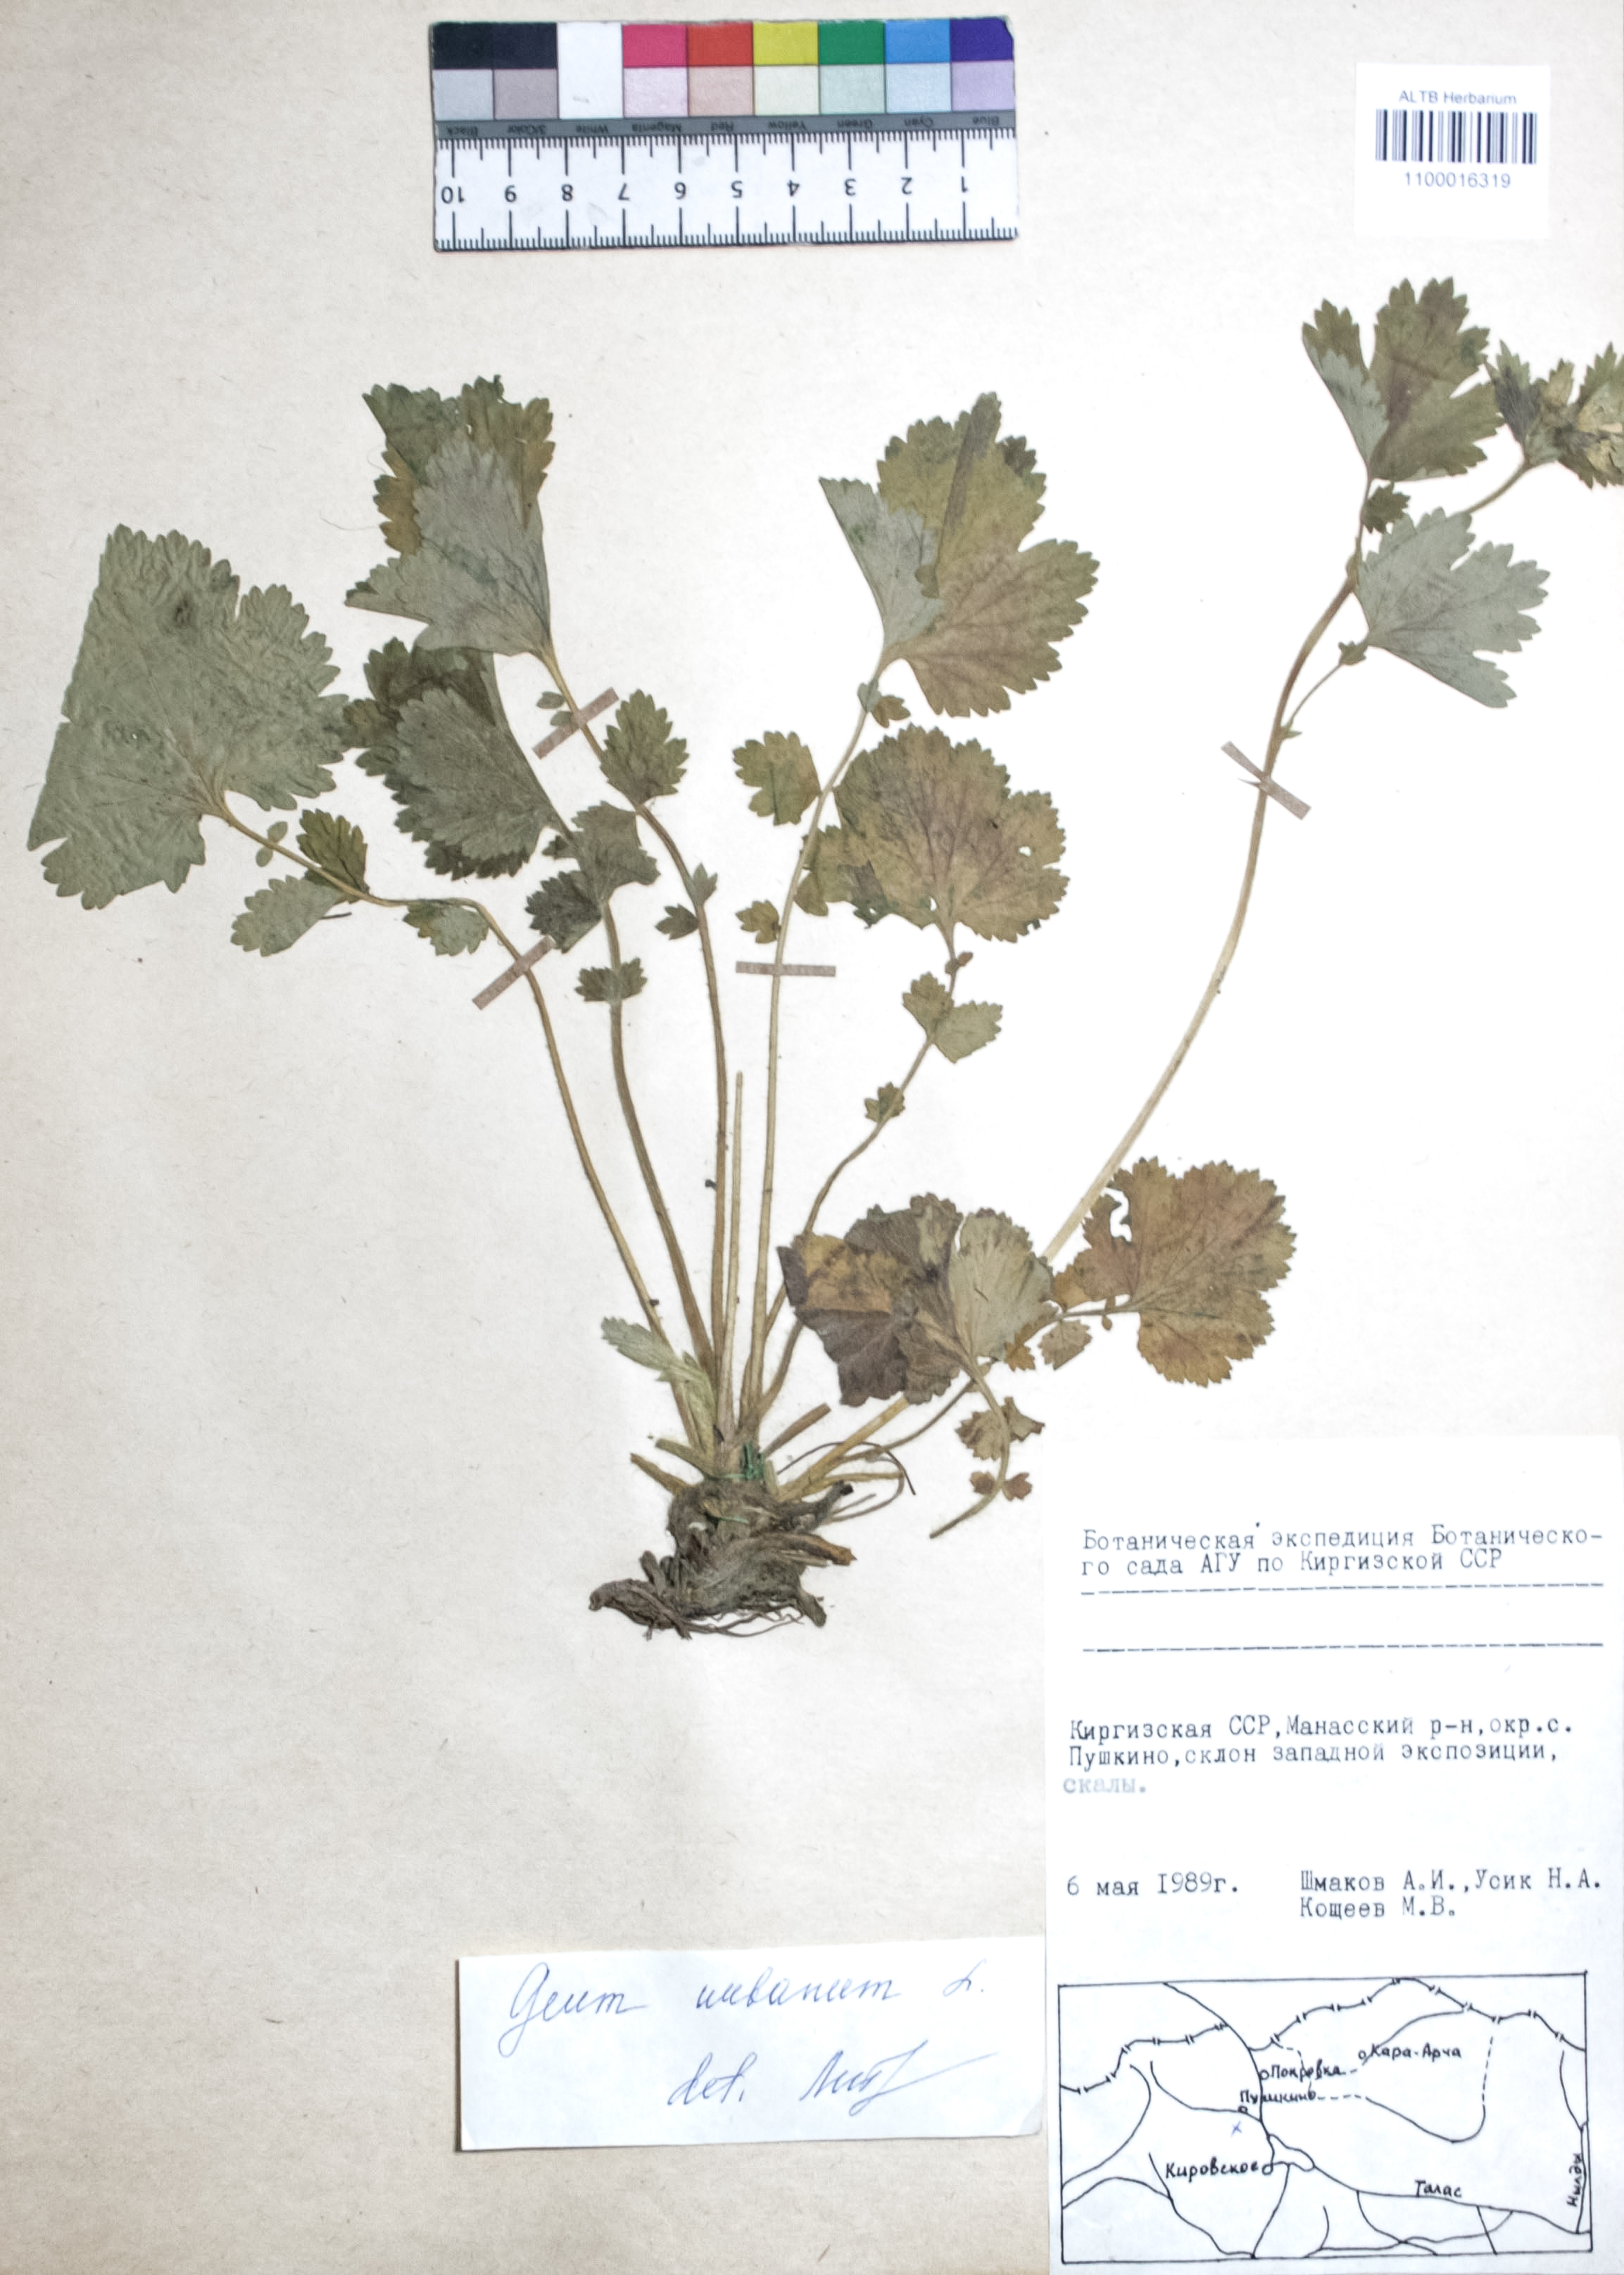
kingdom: Plantae
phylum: Tracheophyta
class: Magnoliopsida
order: Rosales
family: Rosaceae
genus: Geum
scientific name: Geum urbanum
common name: Wood avens
